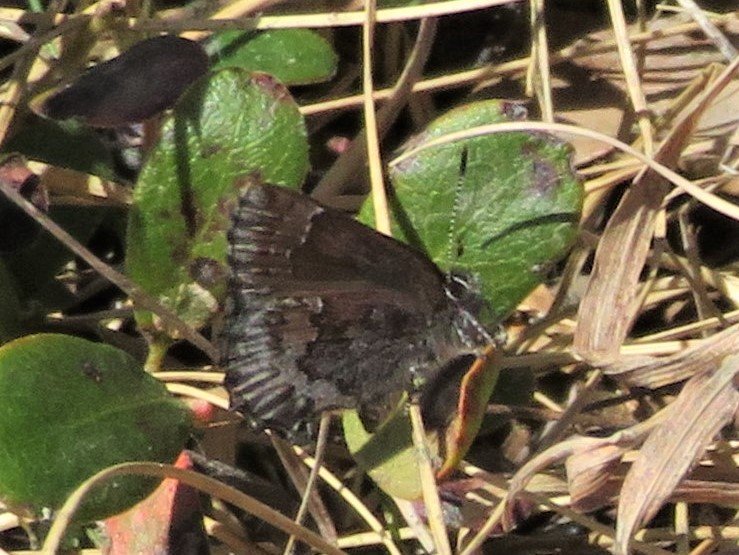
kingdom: Animalia
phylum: Arthropoda
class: Insecta
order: Lepidoptera
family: Lycaenidae
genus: Callophrys
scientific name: Callophrys polios
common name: Hoary Elfin
